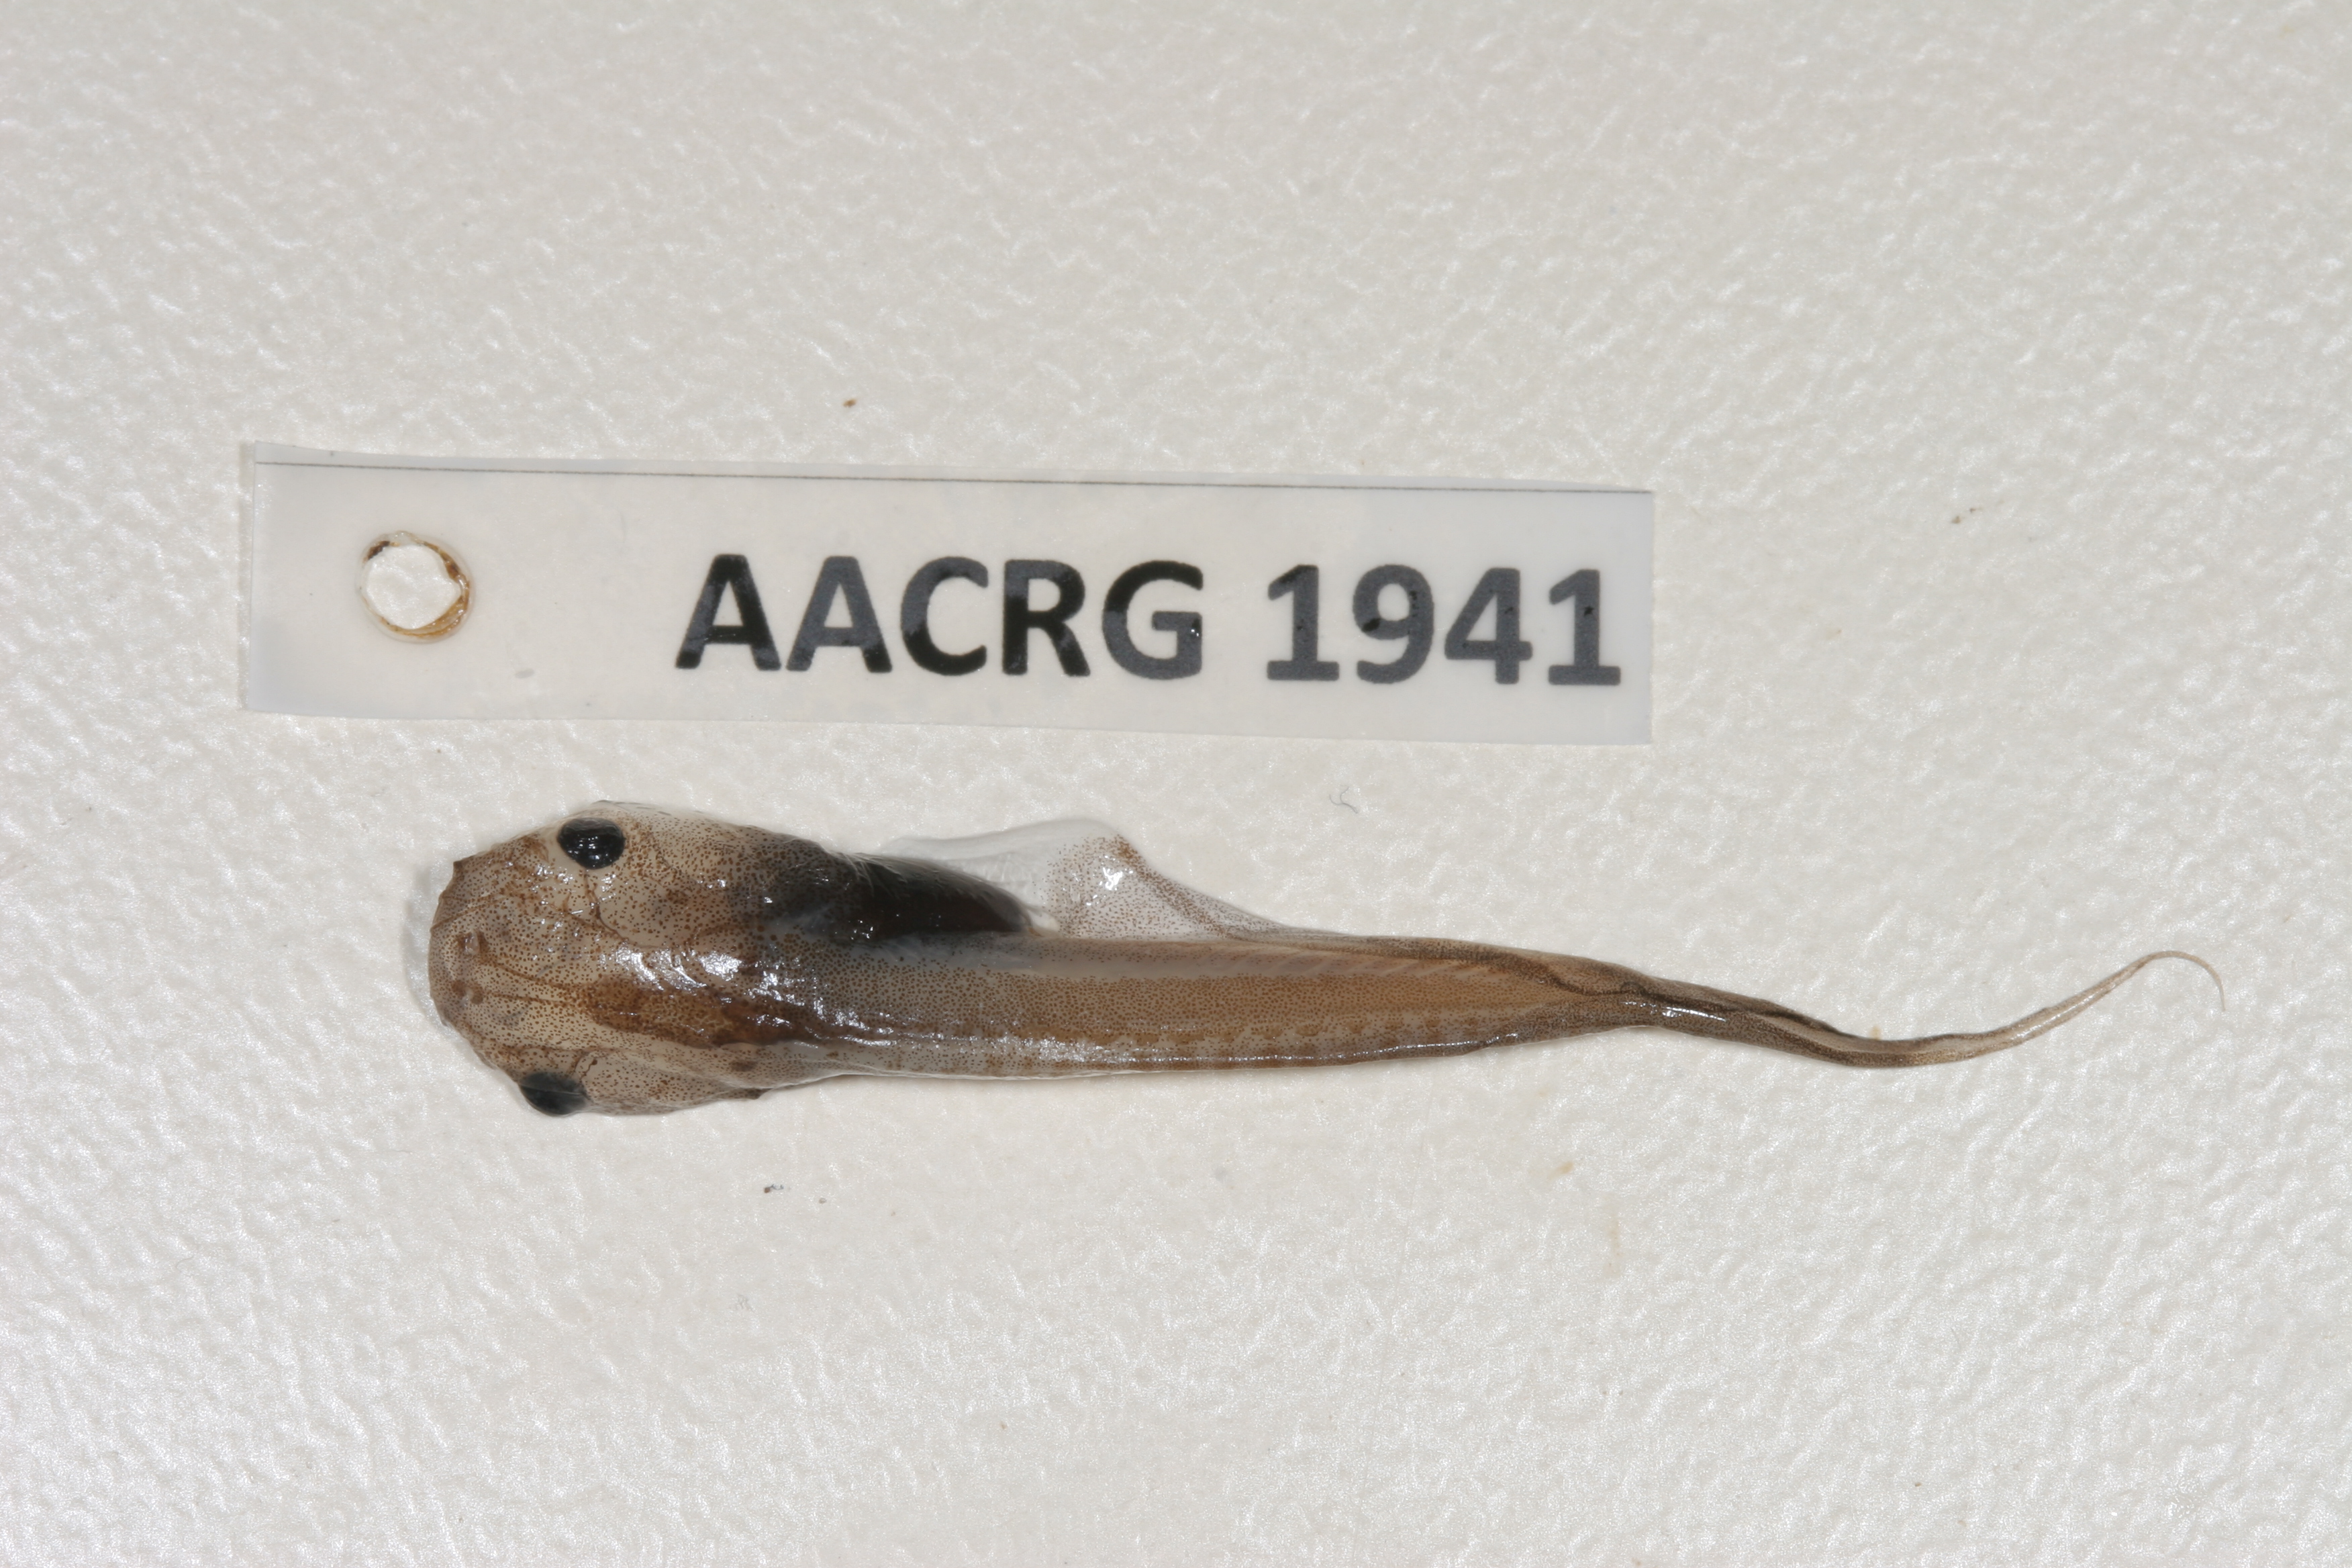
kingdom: Animalia
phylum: Chordata
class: Amphibia
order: Anura
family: Pipidae
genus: Xenopus
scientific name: Xenopus muelleri
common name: Muller's clawed frog
